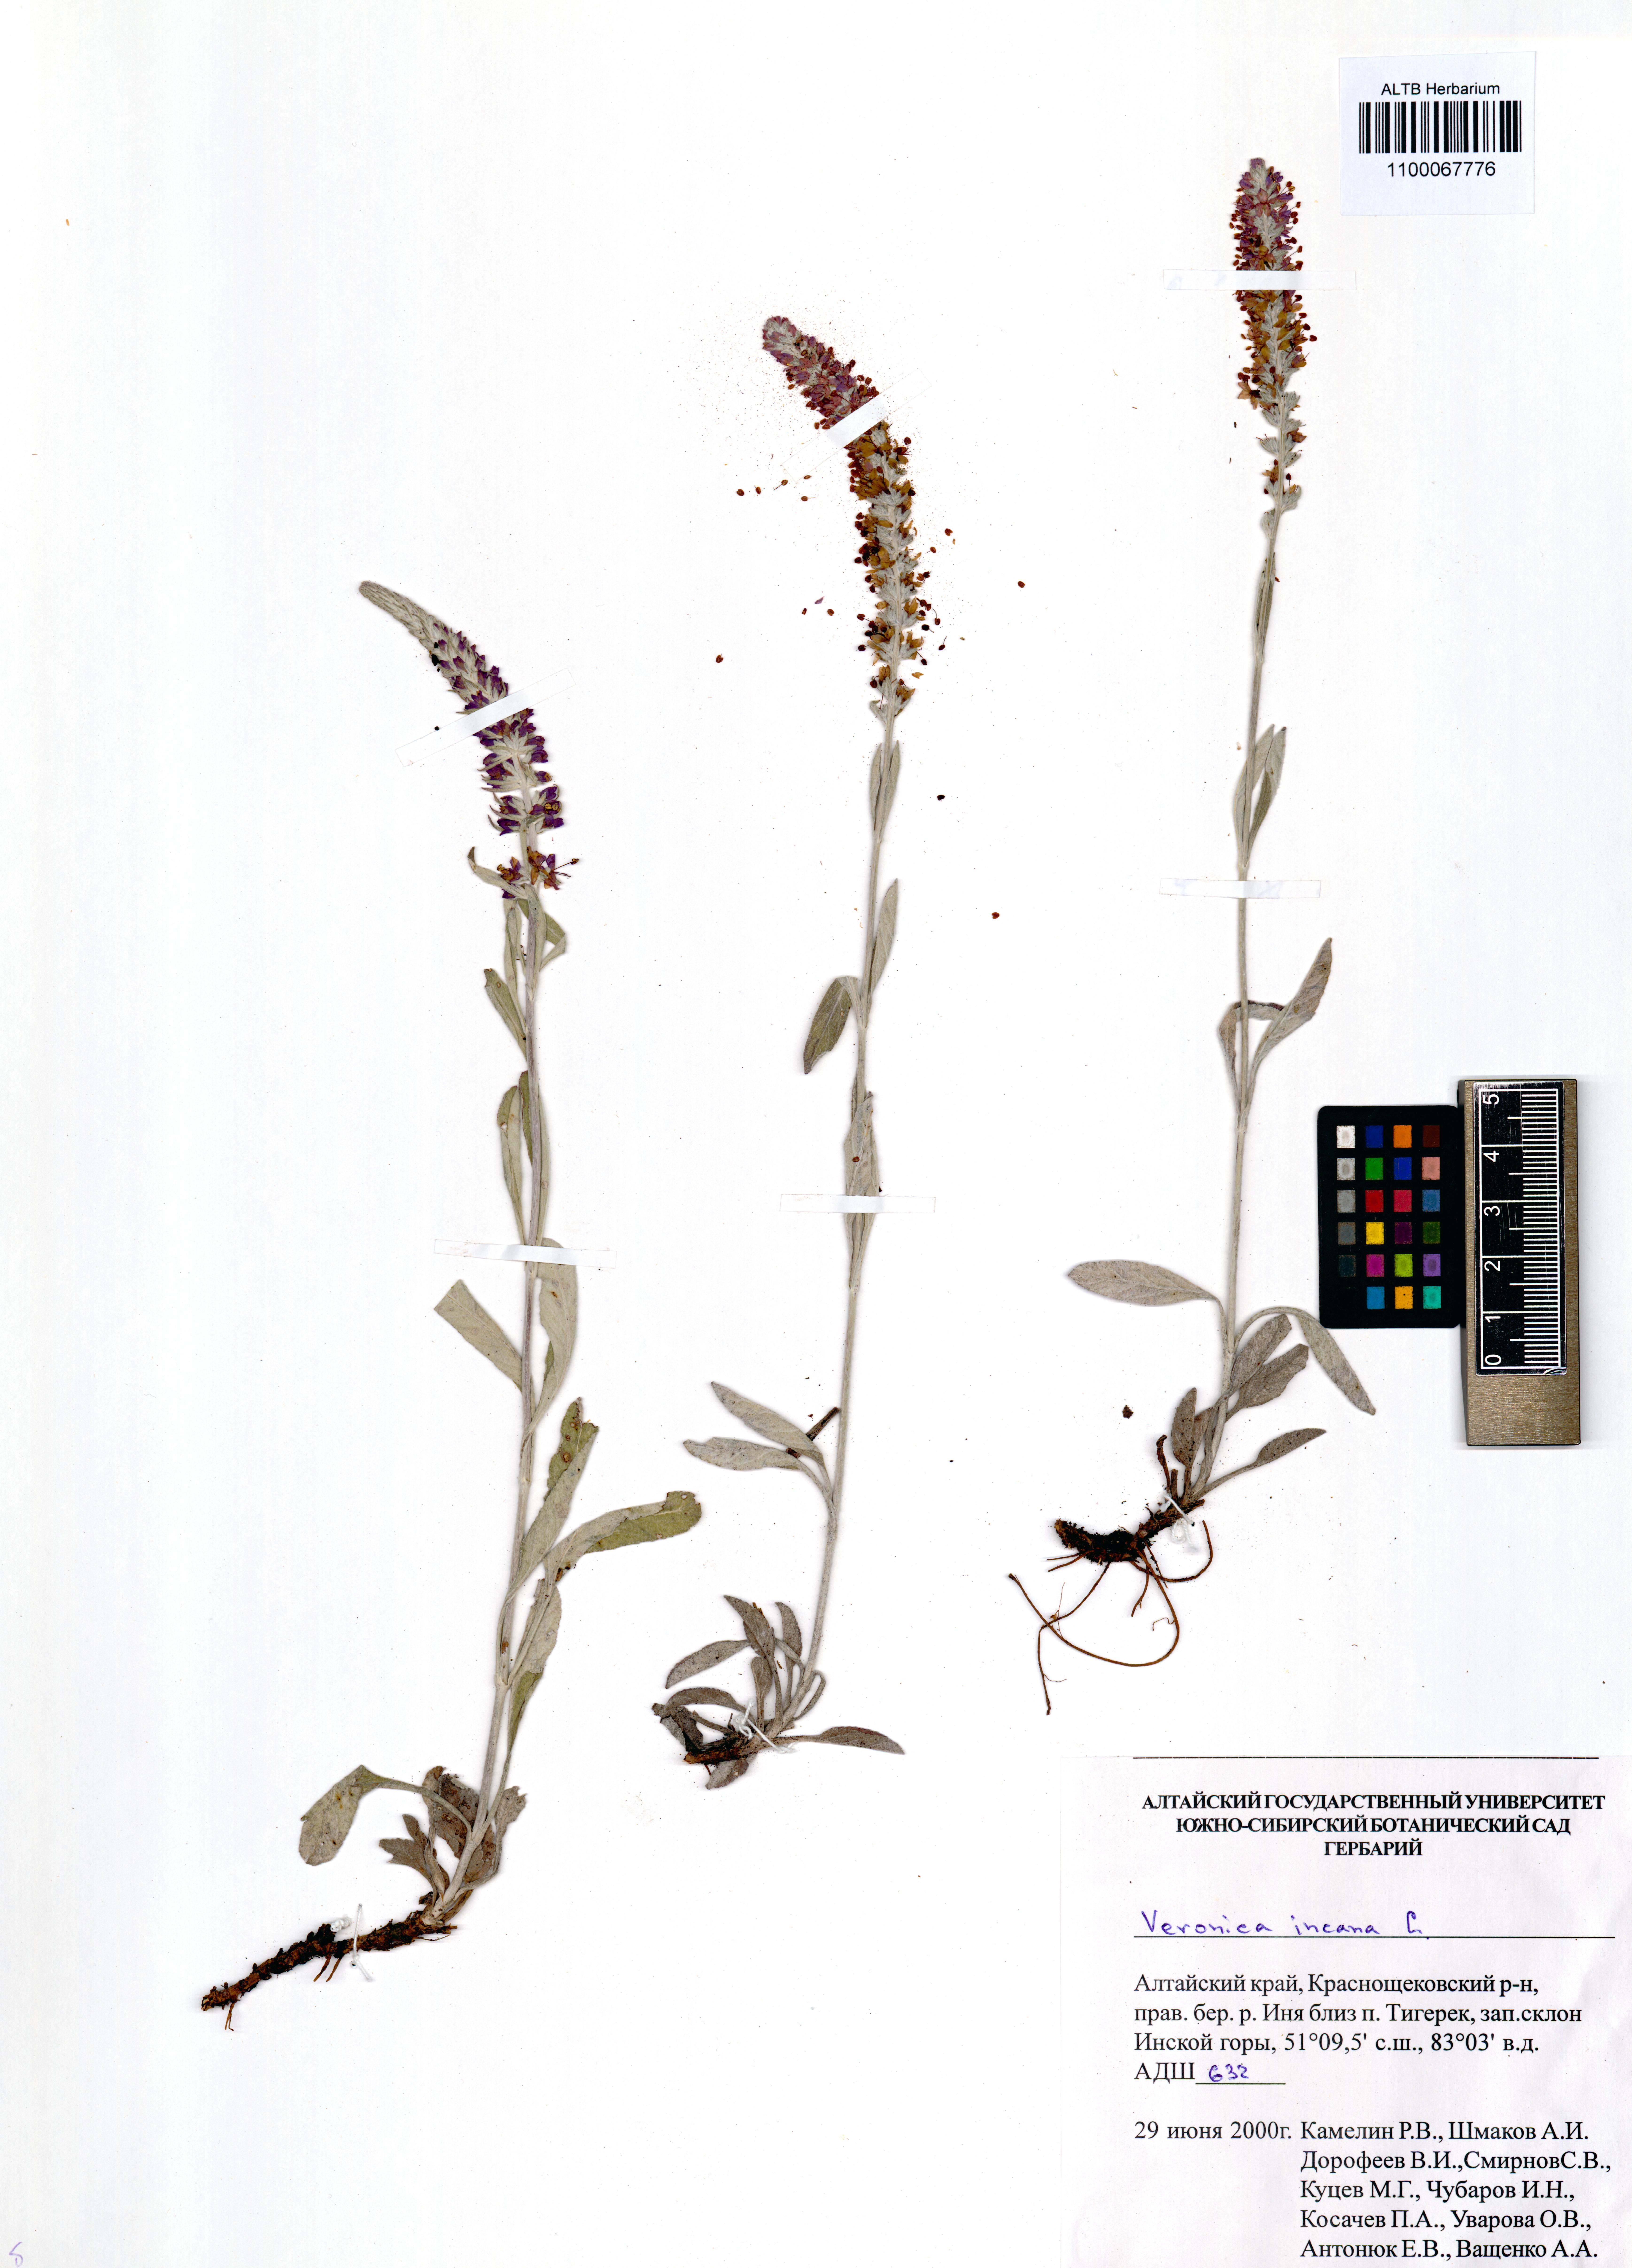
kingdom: Plantae
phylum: Tracheophyta
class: Magnoliopsida
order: Lamiales
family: Plantaginaceae
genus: Veronica
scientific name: Veronica incana
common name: Silver speedwell
